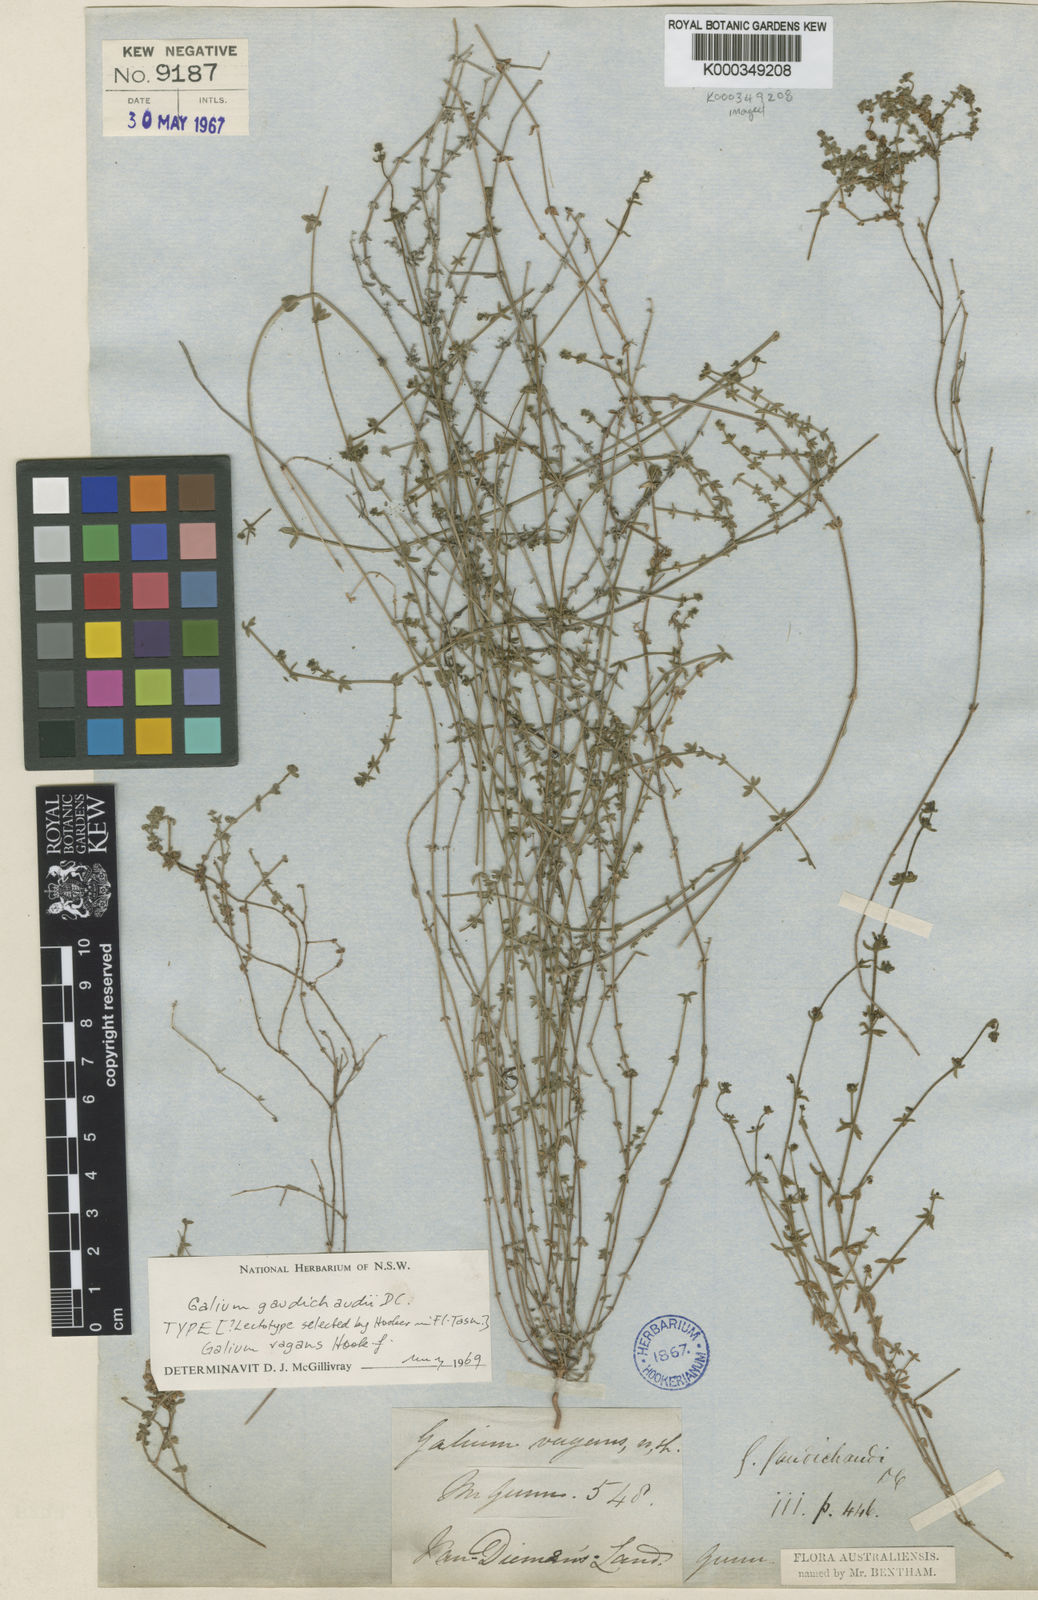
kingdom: Plantae
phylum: Tracheophyta
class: Magnoliopsida
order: Gentianales
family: Rubiaceae
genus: Galium
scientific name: Galium gaudichaudii
